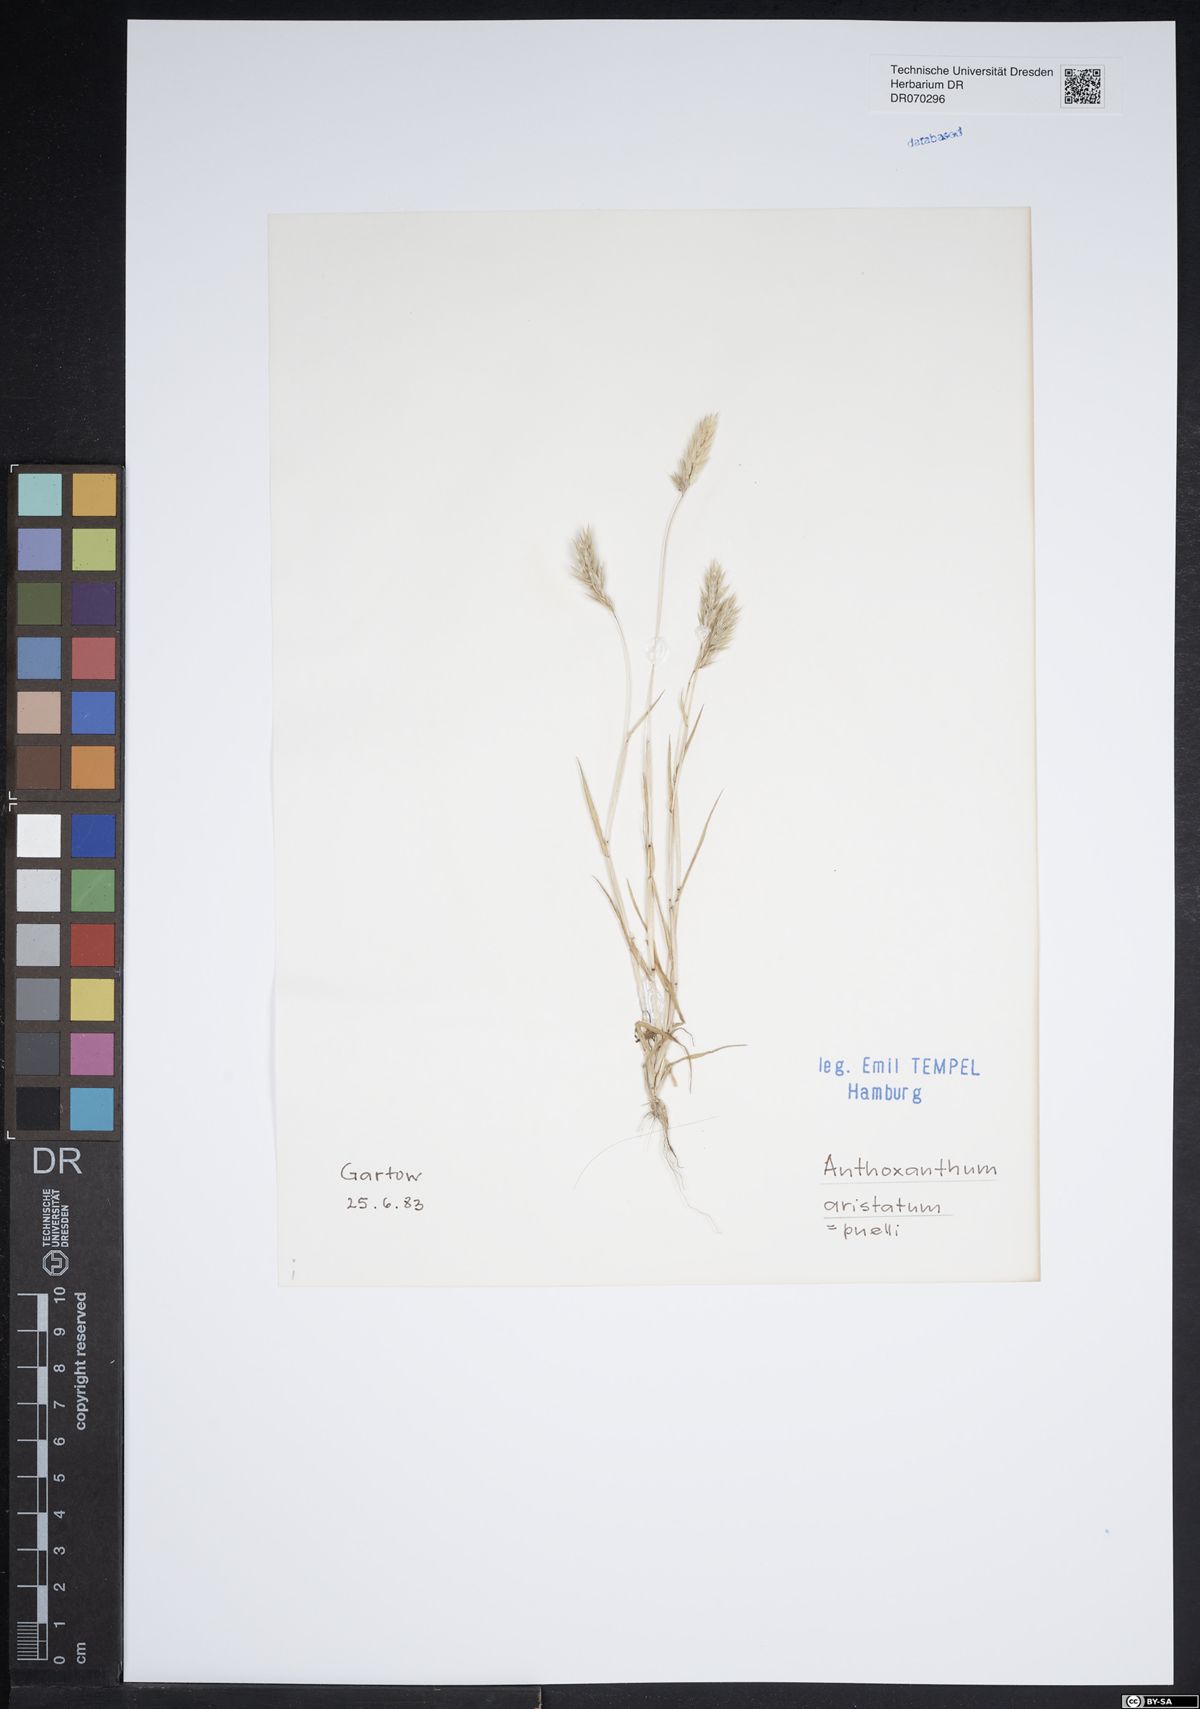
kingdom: Plantae
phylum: Tracheophyta
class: Liliopsida
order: Poales
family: Poaceae
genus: Anthoxanthum
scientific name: Anthoxanthum aristatum
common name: Annual vernal-grass
